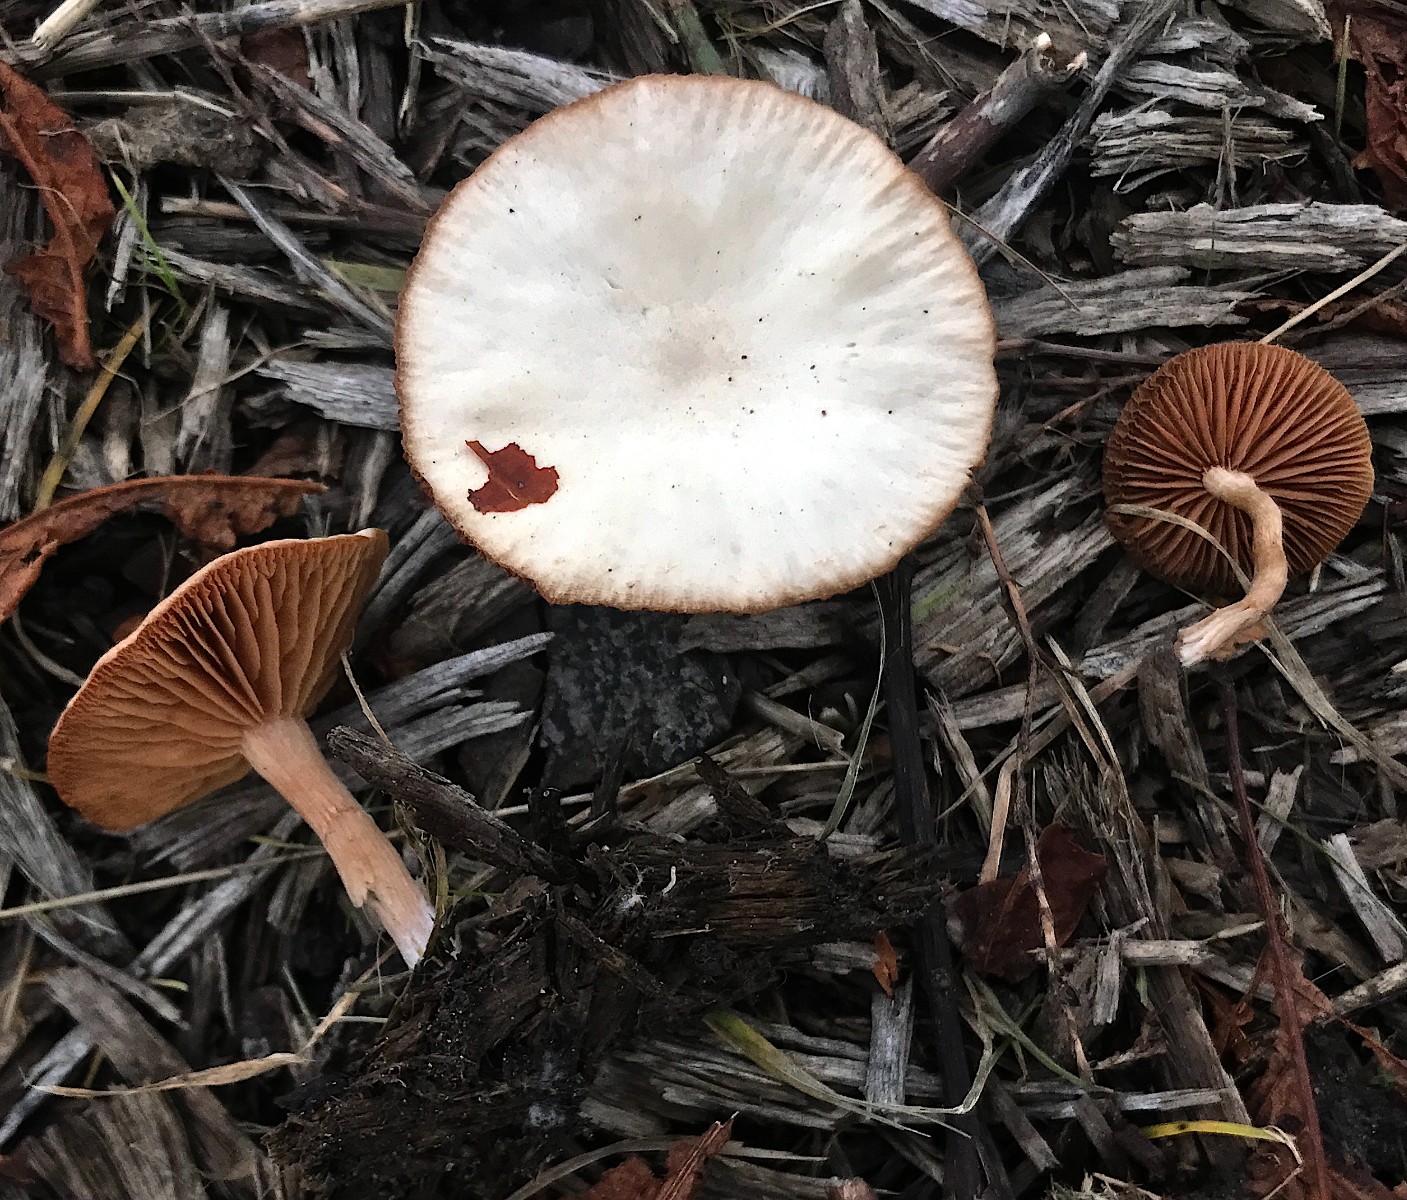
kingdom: Fungi
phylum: Basidiomycota
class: Agaricomycetes
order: Agaricales
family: Tubariaceae
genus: Tubaria
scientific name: Tubaria furfuracea
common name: kliddet fnughat
